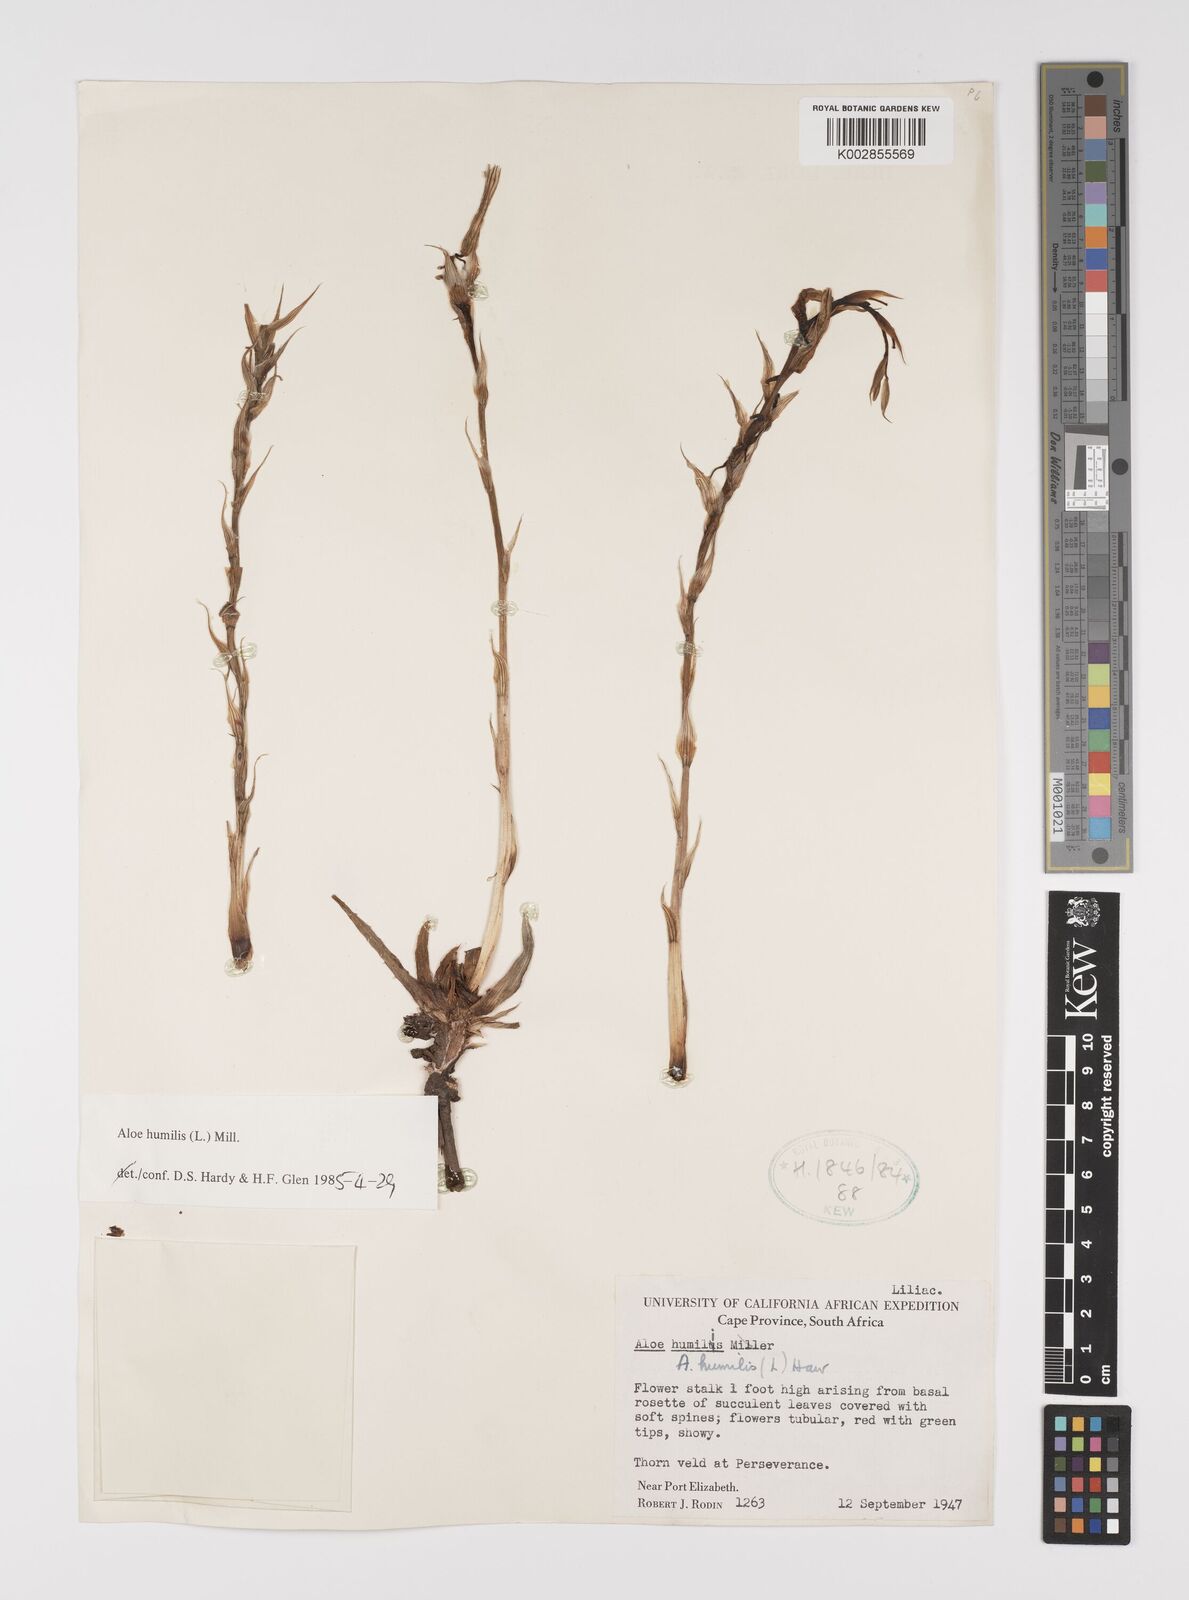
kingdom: Plantae
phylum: Tracheophyta
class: Liliopsida
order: Asparagales
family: Asphodelaceae
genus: Aloe
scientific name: Aloe humilis
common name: Dwarf hedgehog aloe
